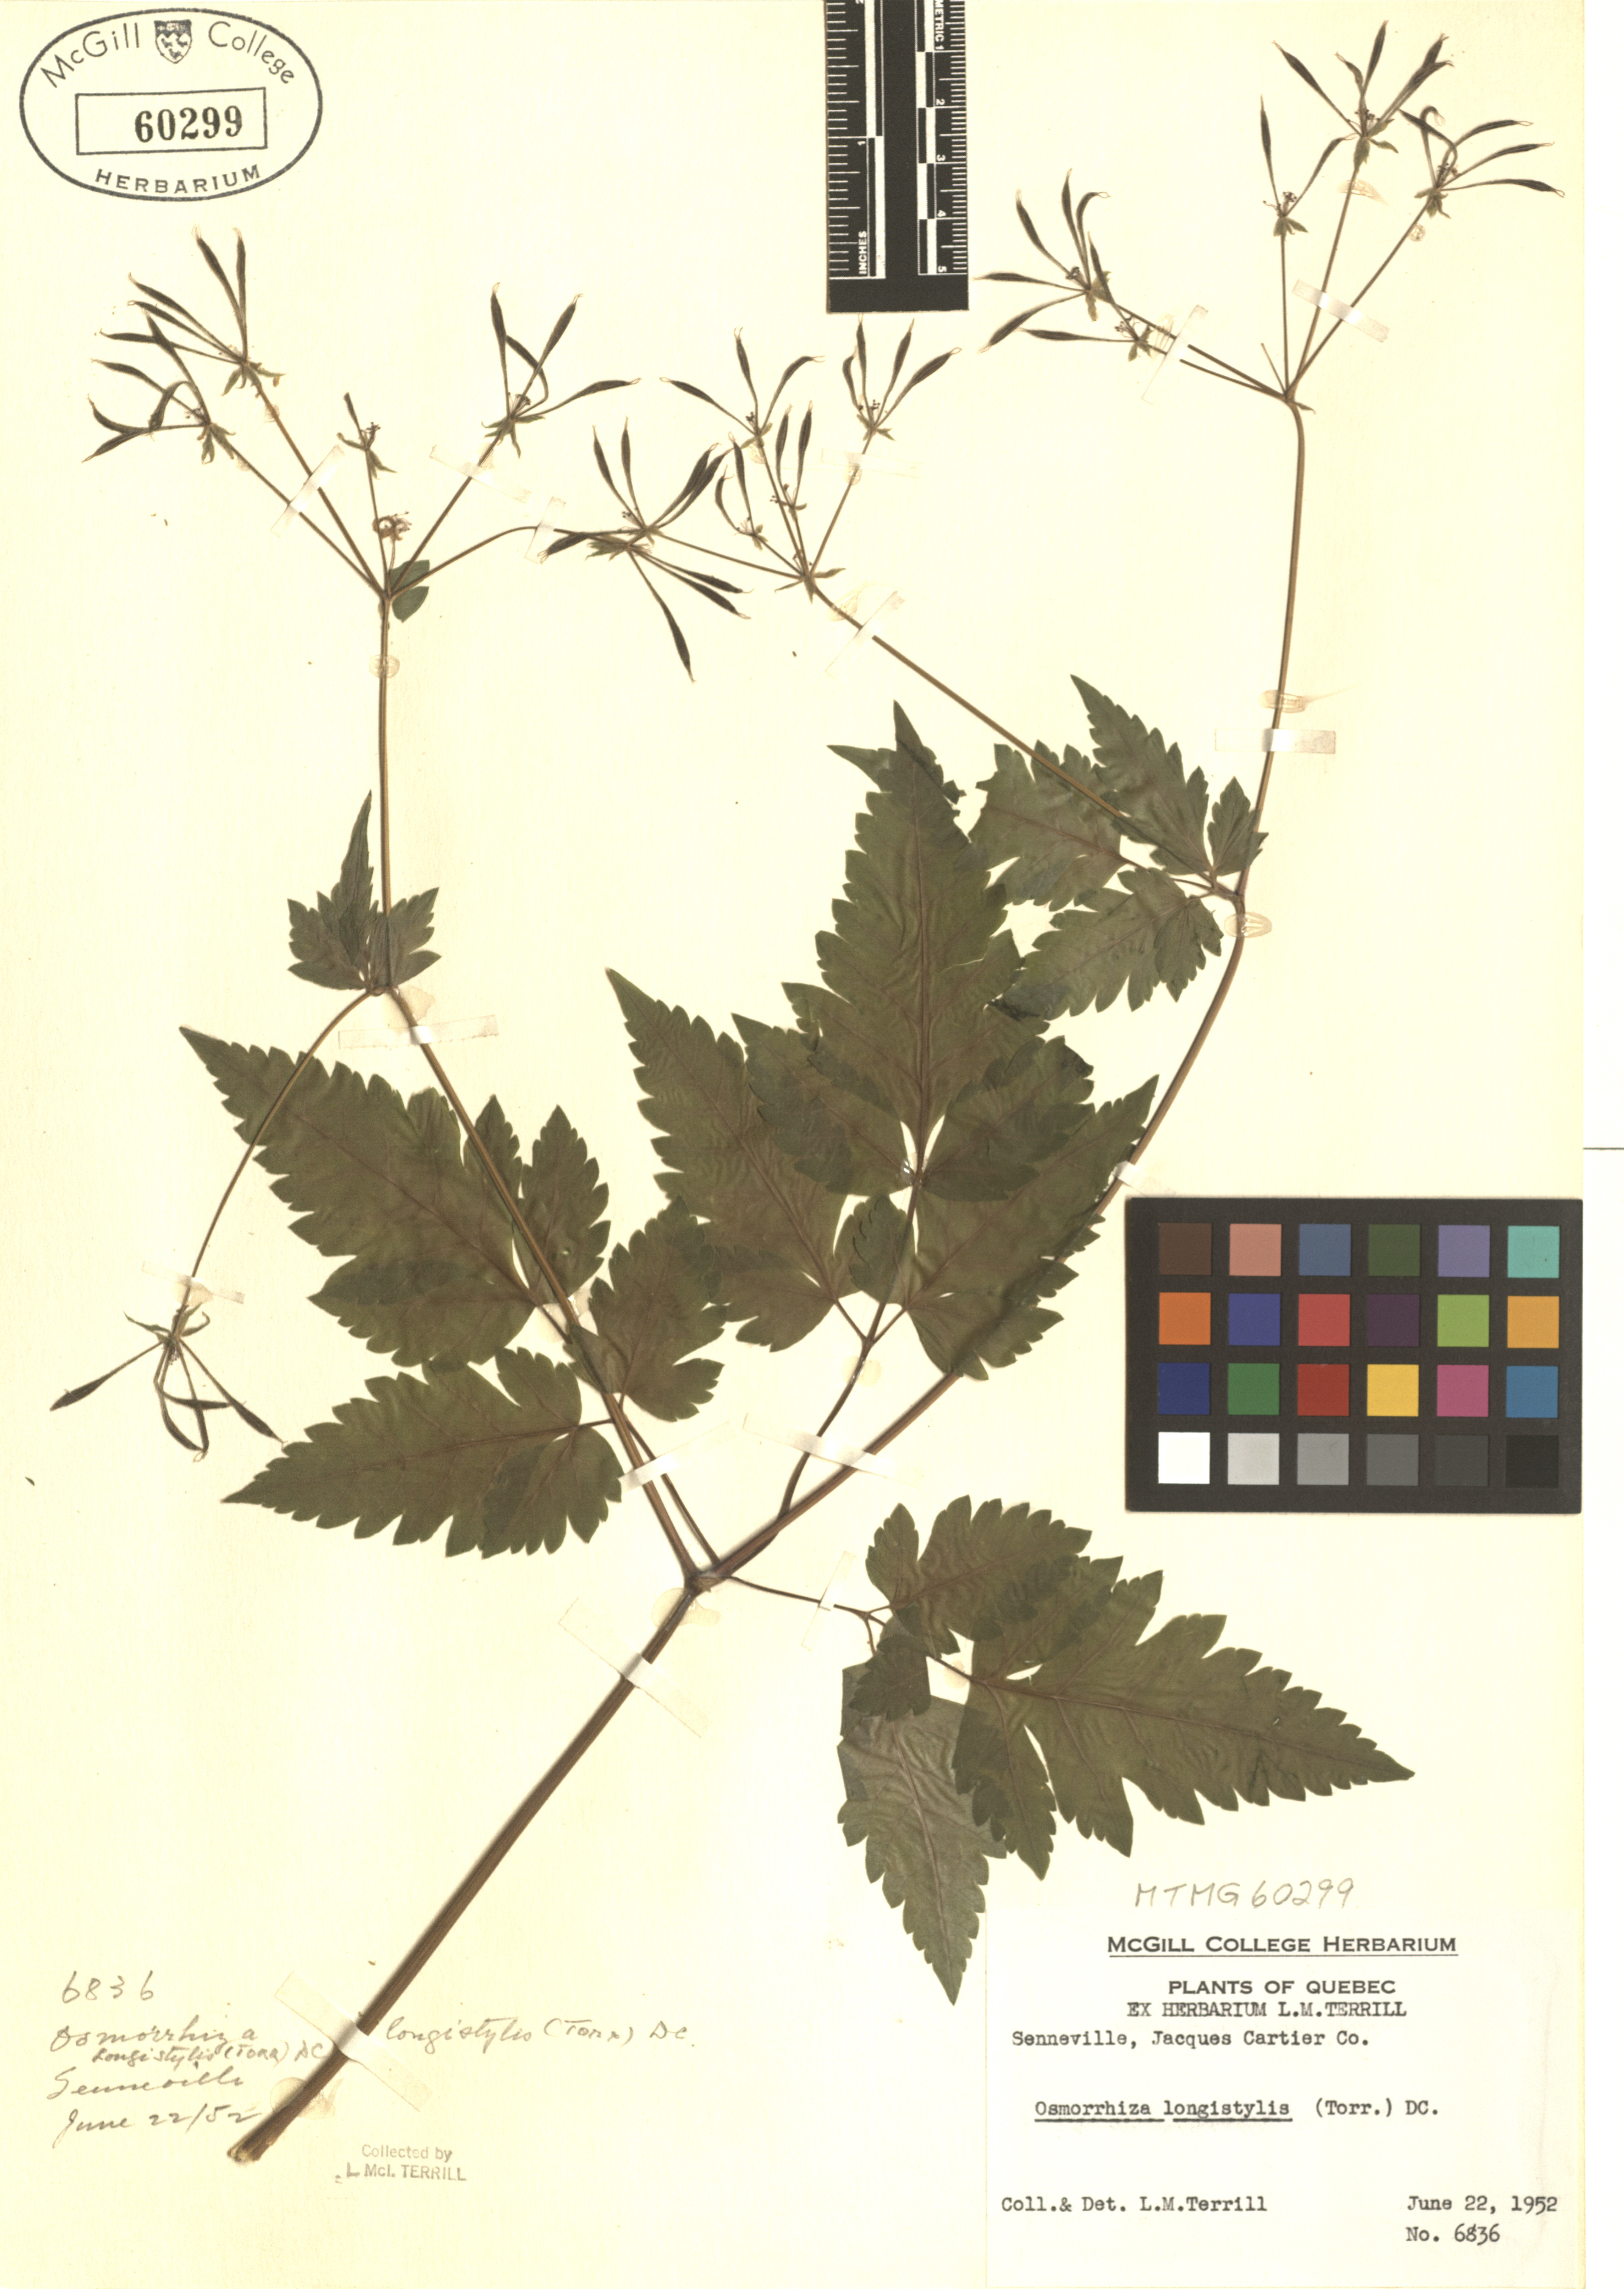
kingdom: Plantae
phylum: Tracheophyta
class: Magnoliopsida
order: Apiales
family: Apiaceae
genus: Osmorhiza
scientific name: Osmorhiza longistylis
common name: Smooth sweet cicely
